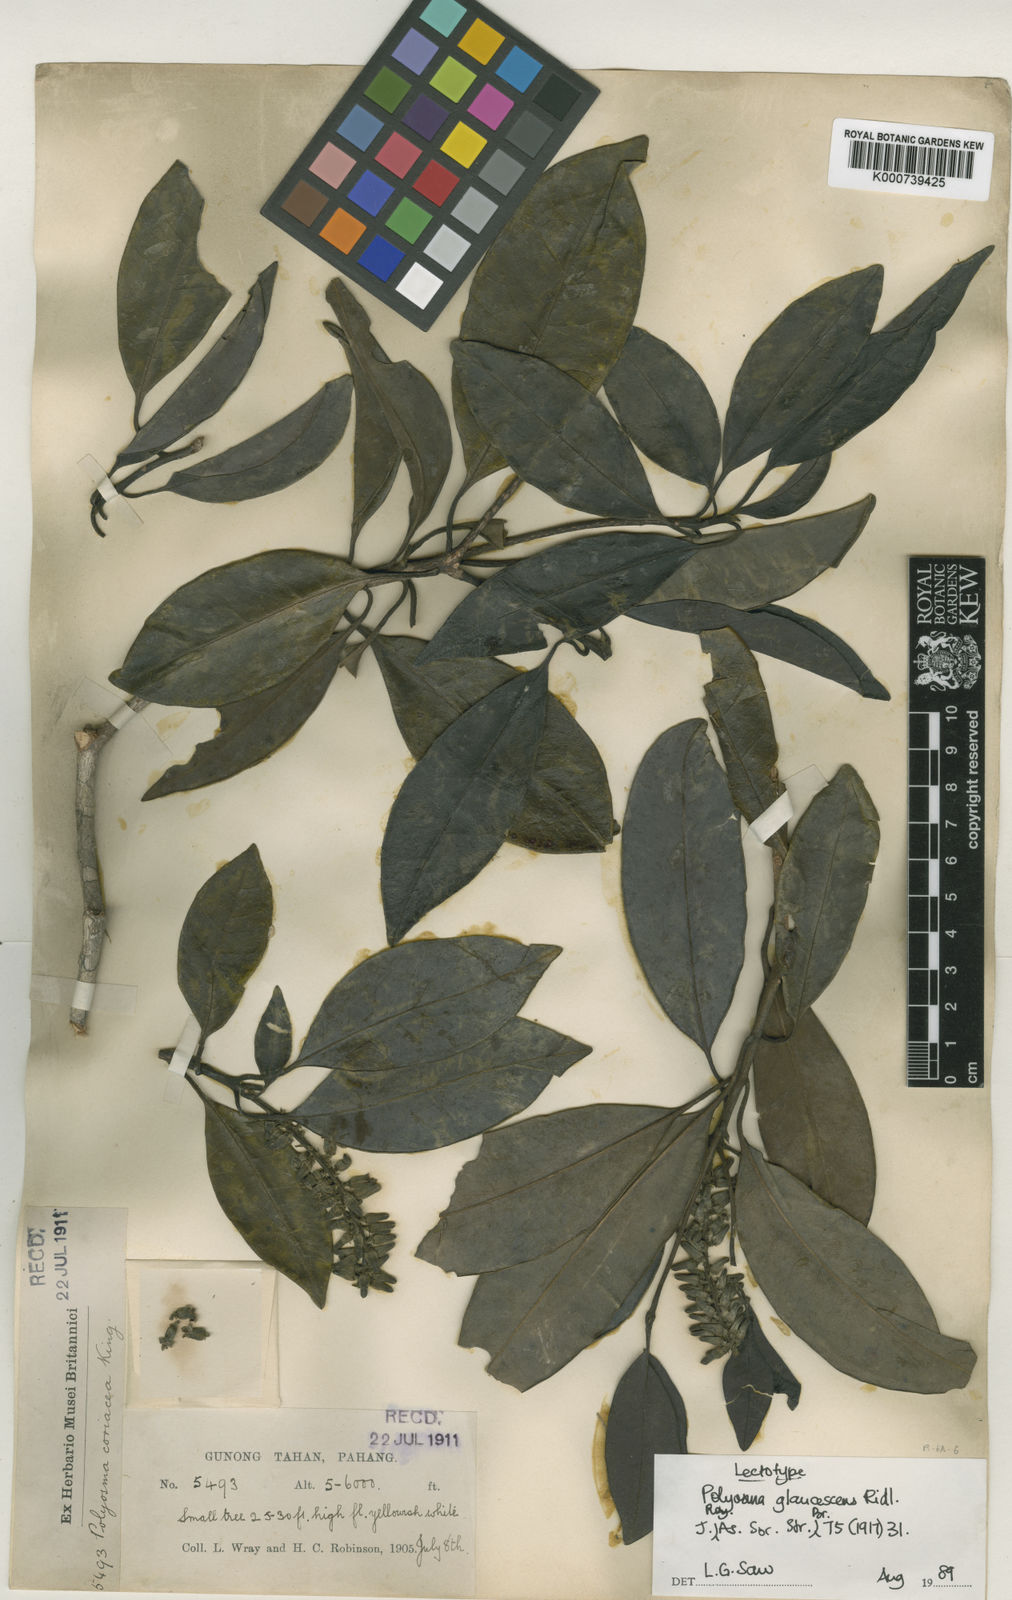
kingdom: Plantae
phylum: Tracheophyta
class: Magnoliopsida
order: Escalloniales
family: Escalloniaceae
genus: Polyosma
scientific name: Polyosma glaucescens
